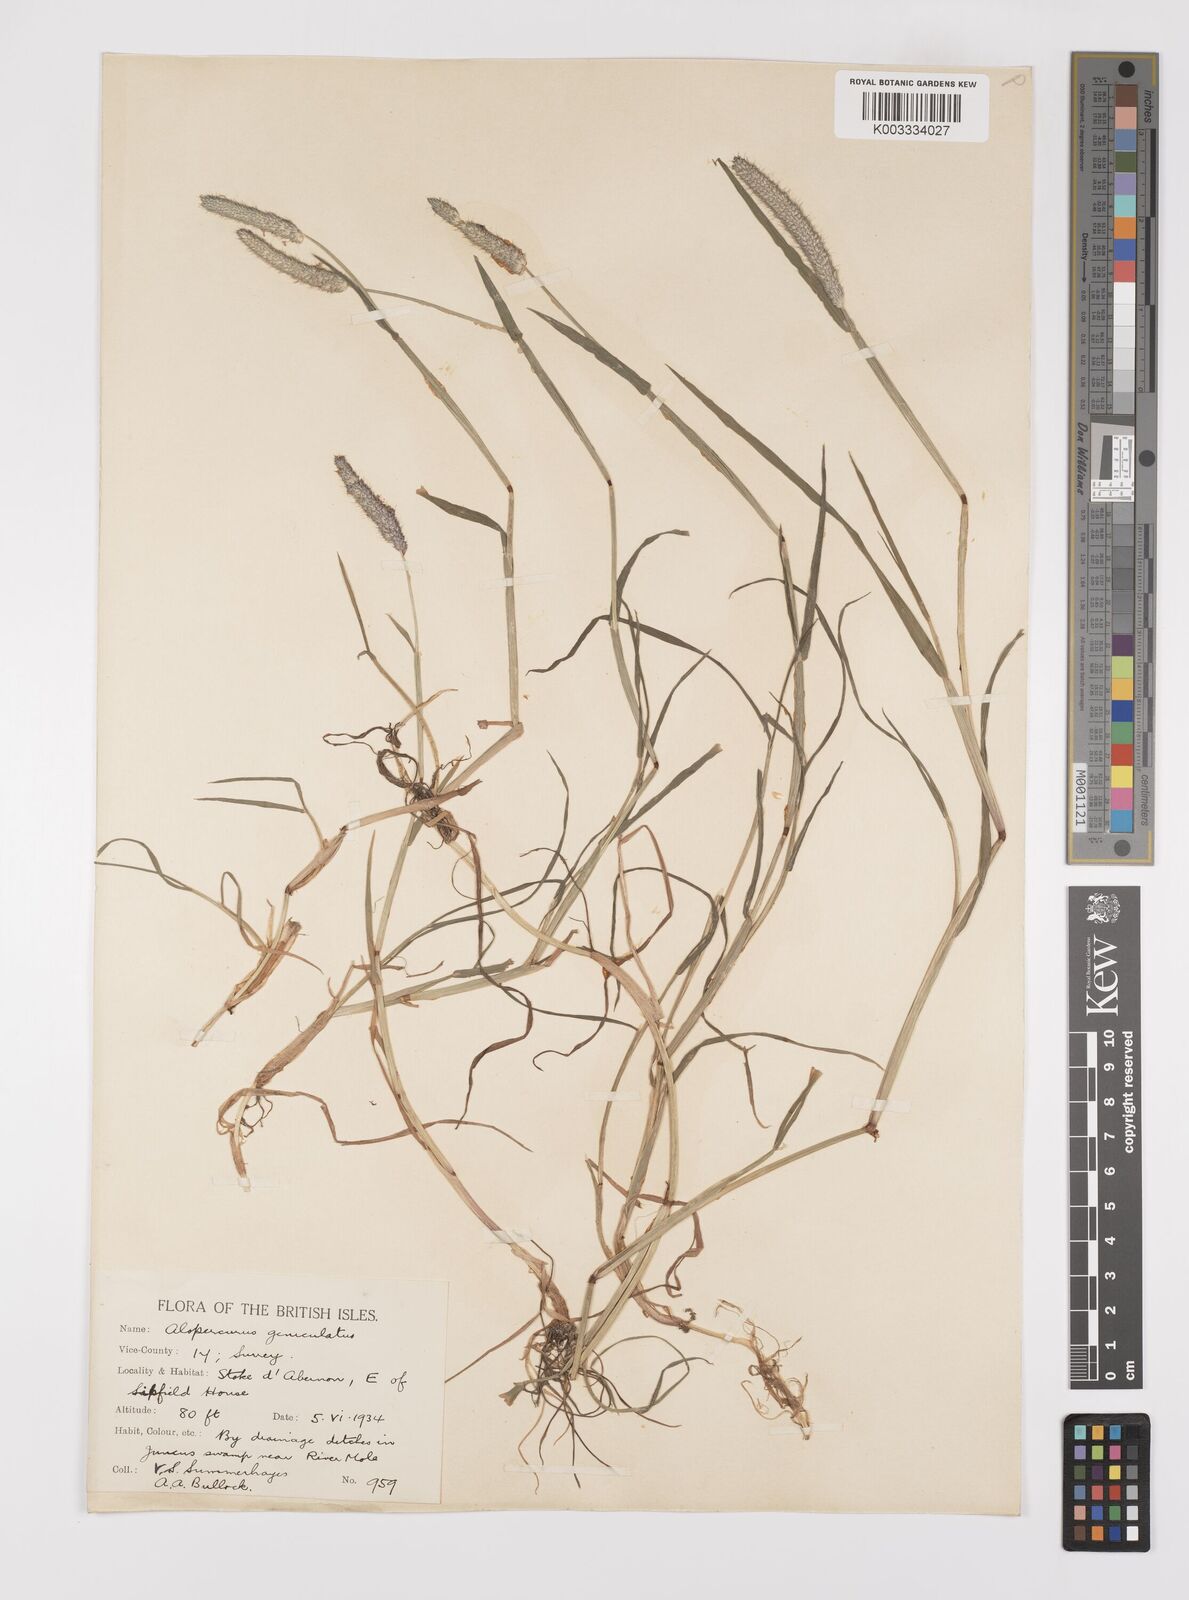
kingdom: Plantae
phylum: Tracheophyta
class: Liliopsida
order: Poales
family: Poaceae
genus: Alopecurus
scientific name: Alopecurus geniculatus
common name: Water foxtail
